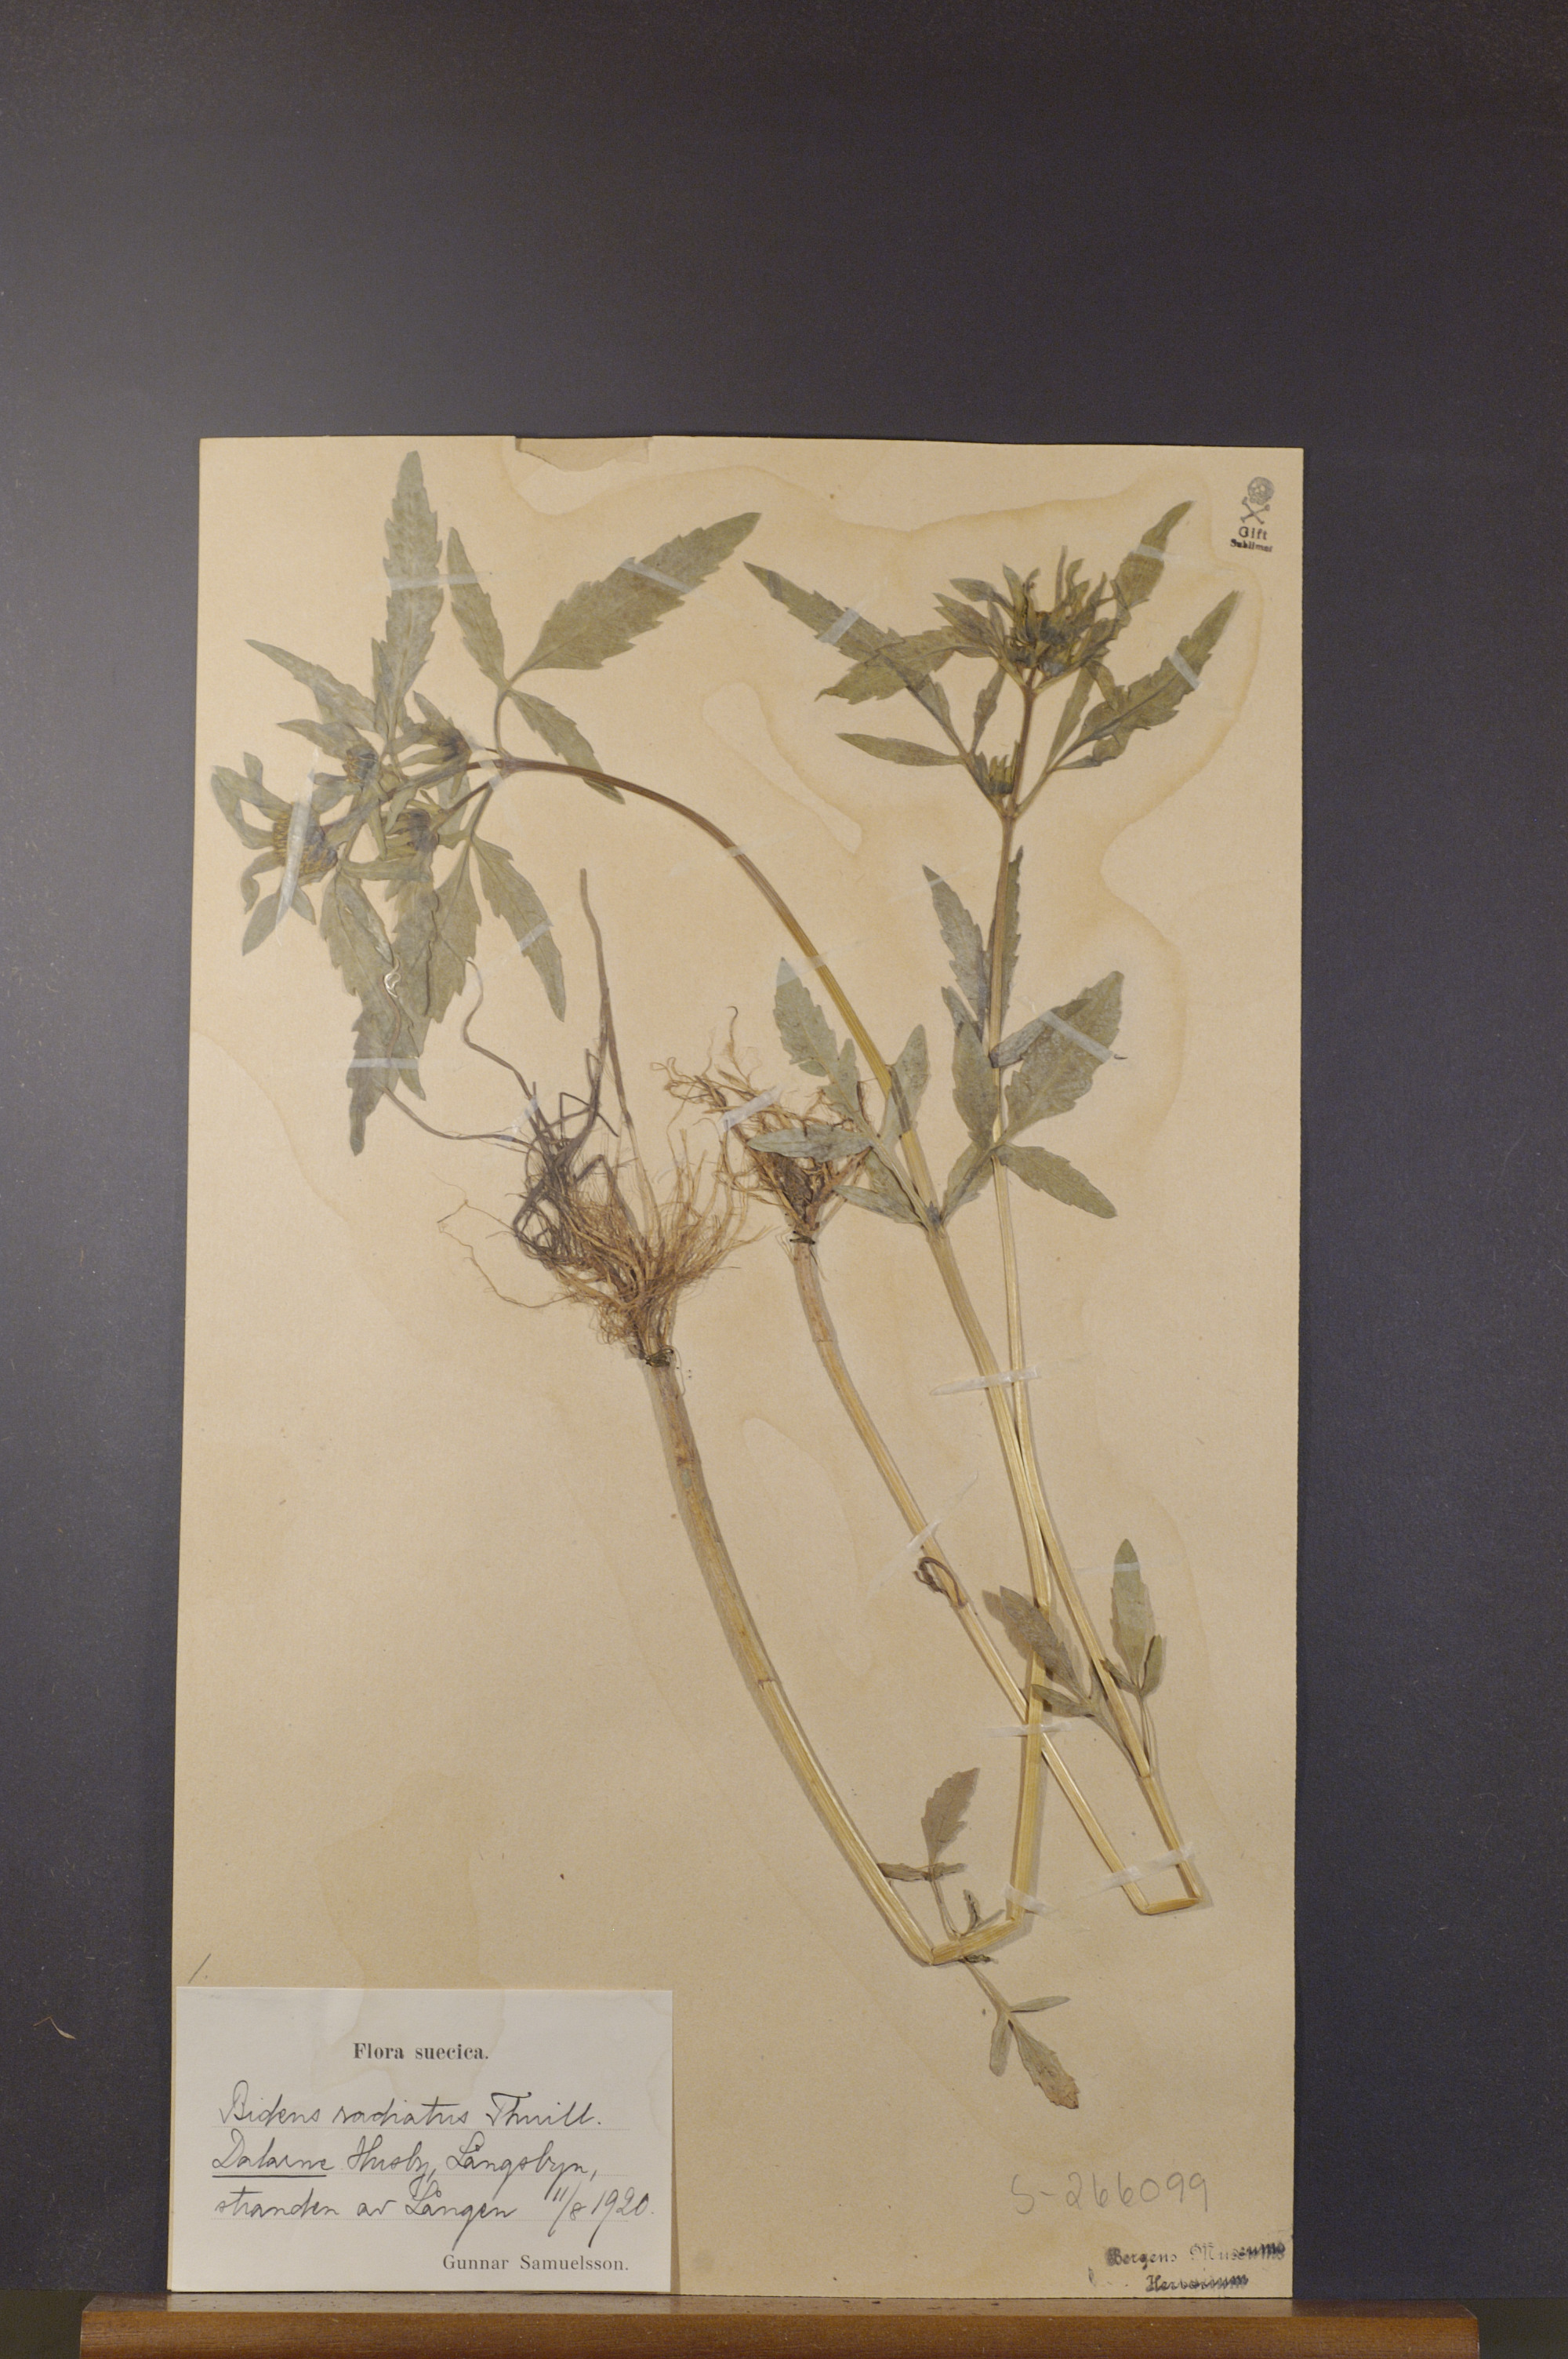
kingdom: Plantae
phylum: Tracheophyta
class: Magnoliopsida
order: Asterales
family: Asteraceae
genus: Bidens
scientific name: Bidens radiata
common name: Radiating bur-marigold
